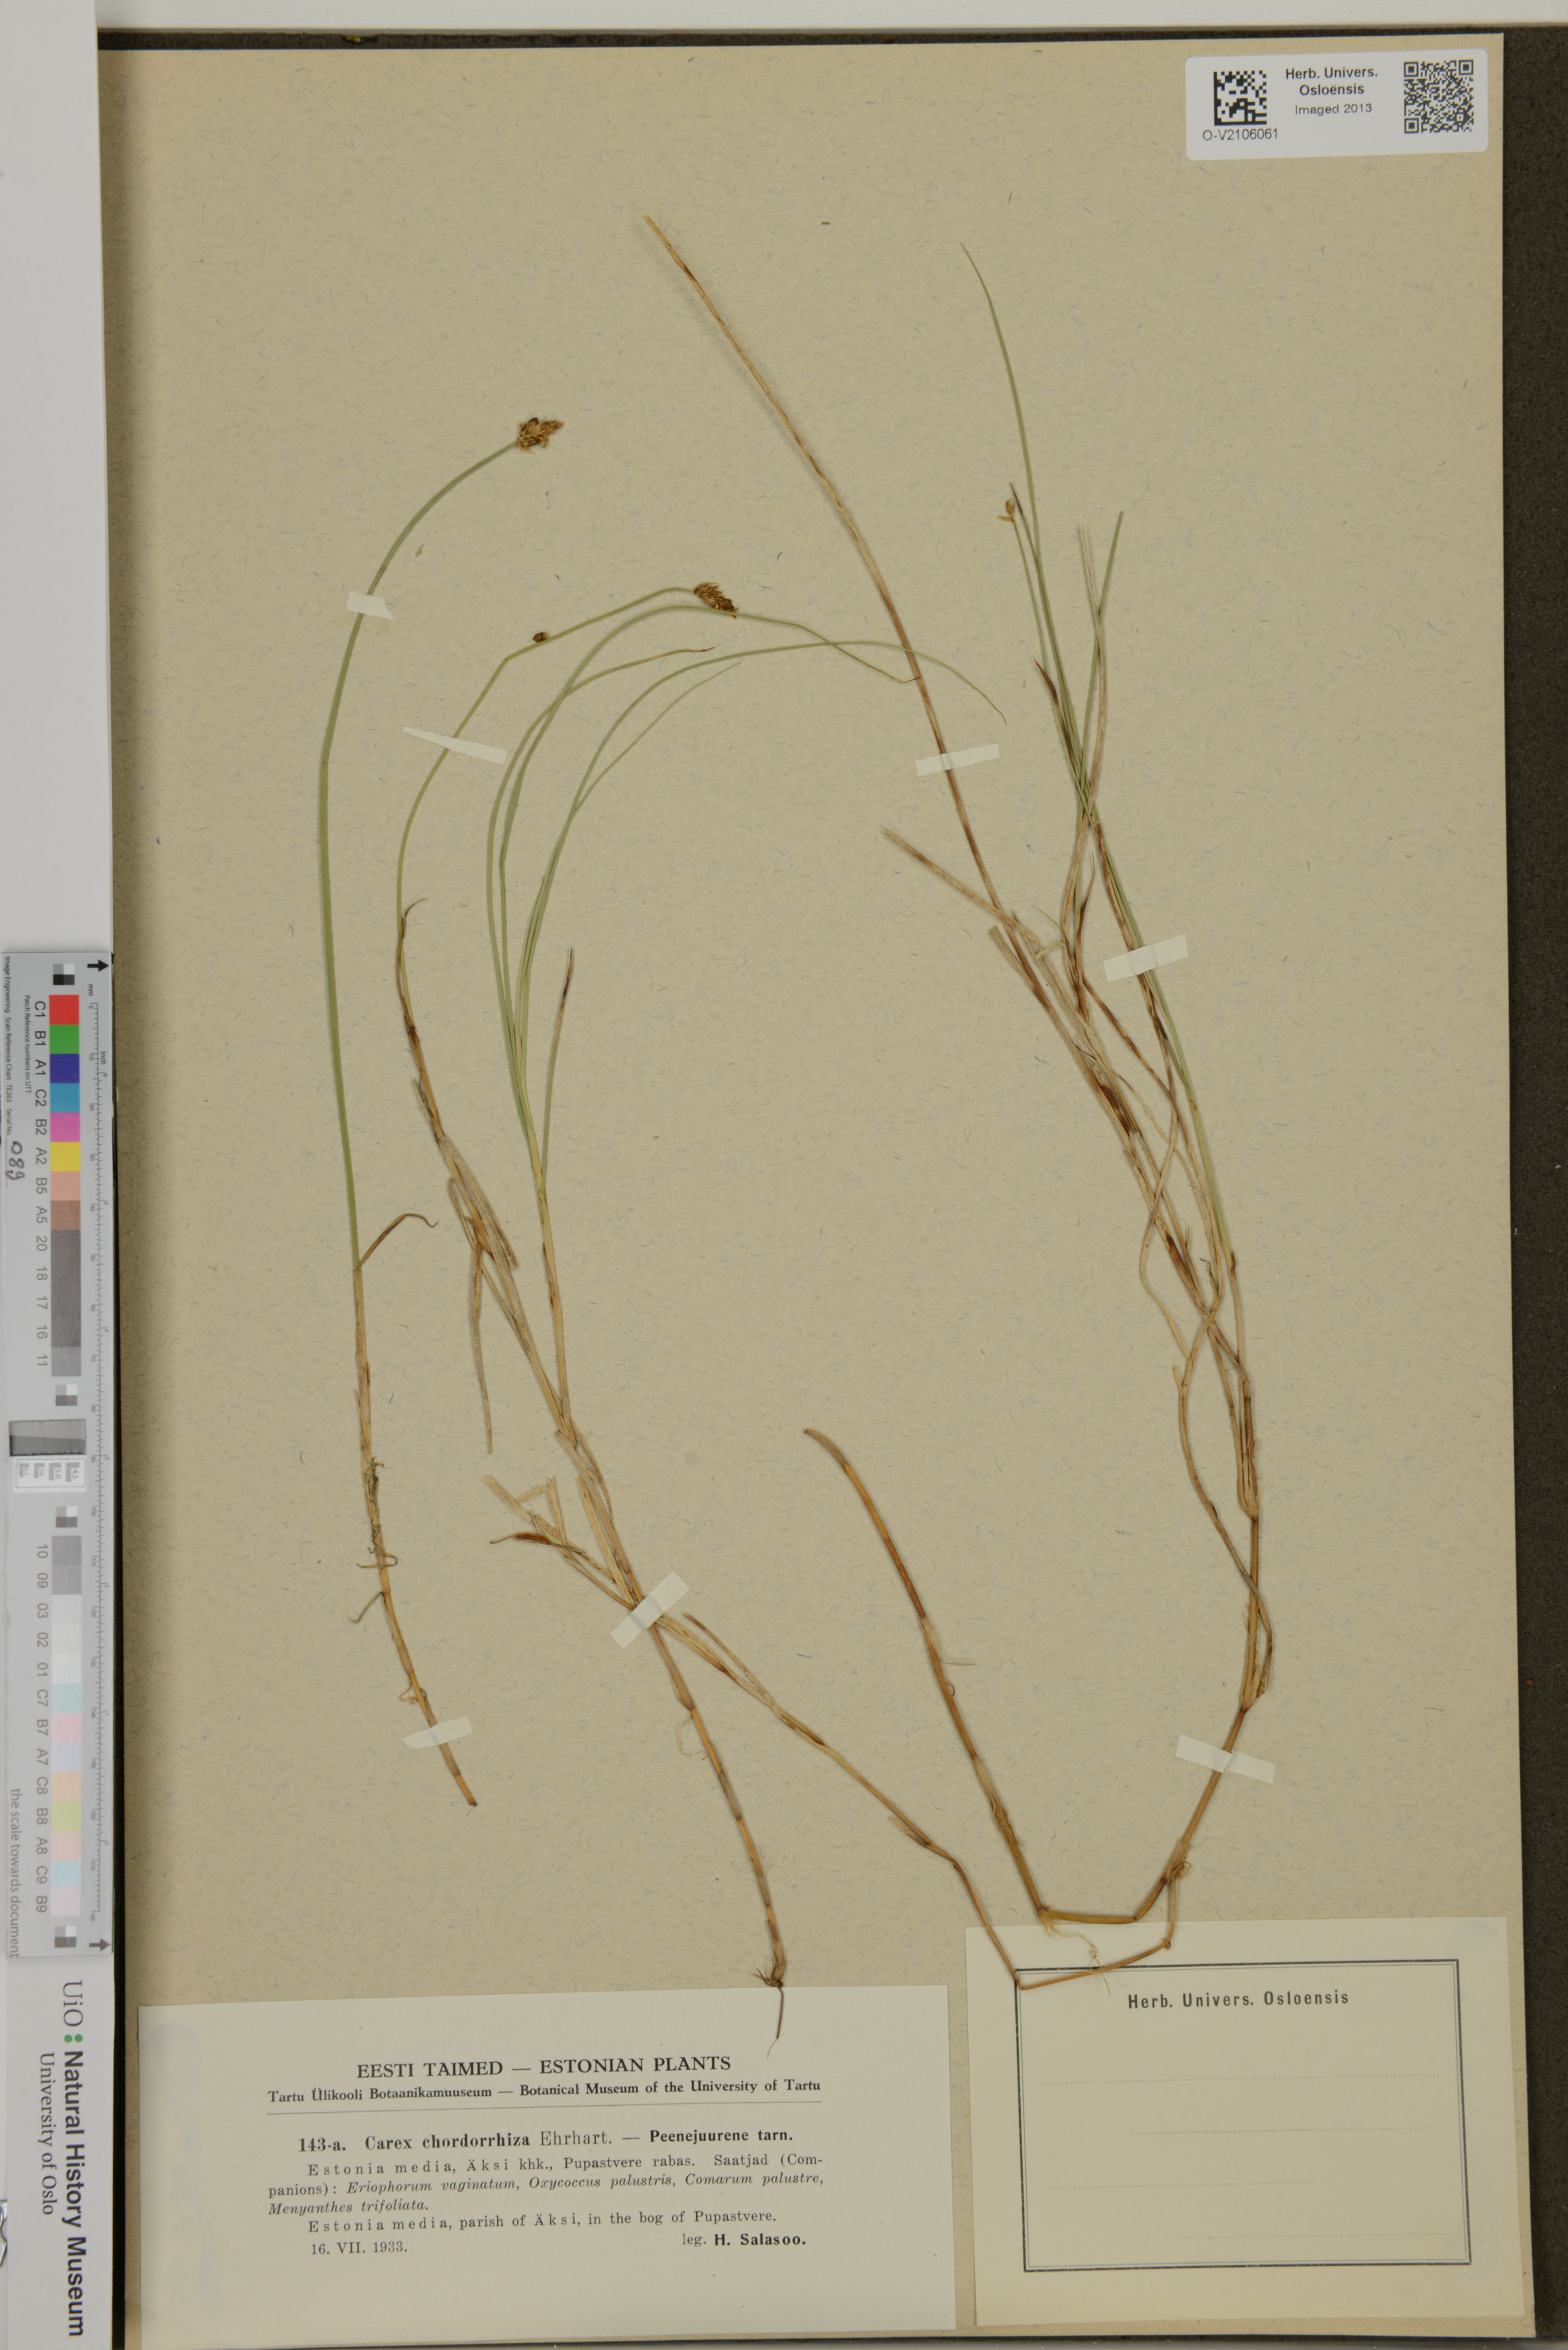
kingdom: Plantae
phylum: Tracheophyta
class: Liliopsida
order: Poales
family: Cyperaceae
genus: Carex
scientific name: Carex chordorrhiza
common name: String sedge
